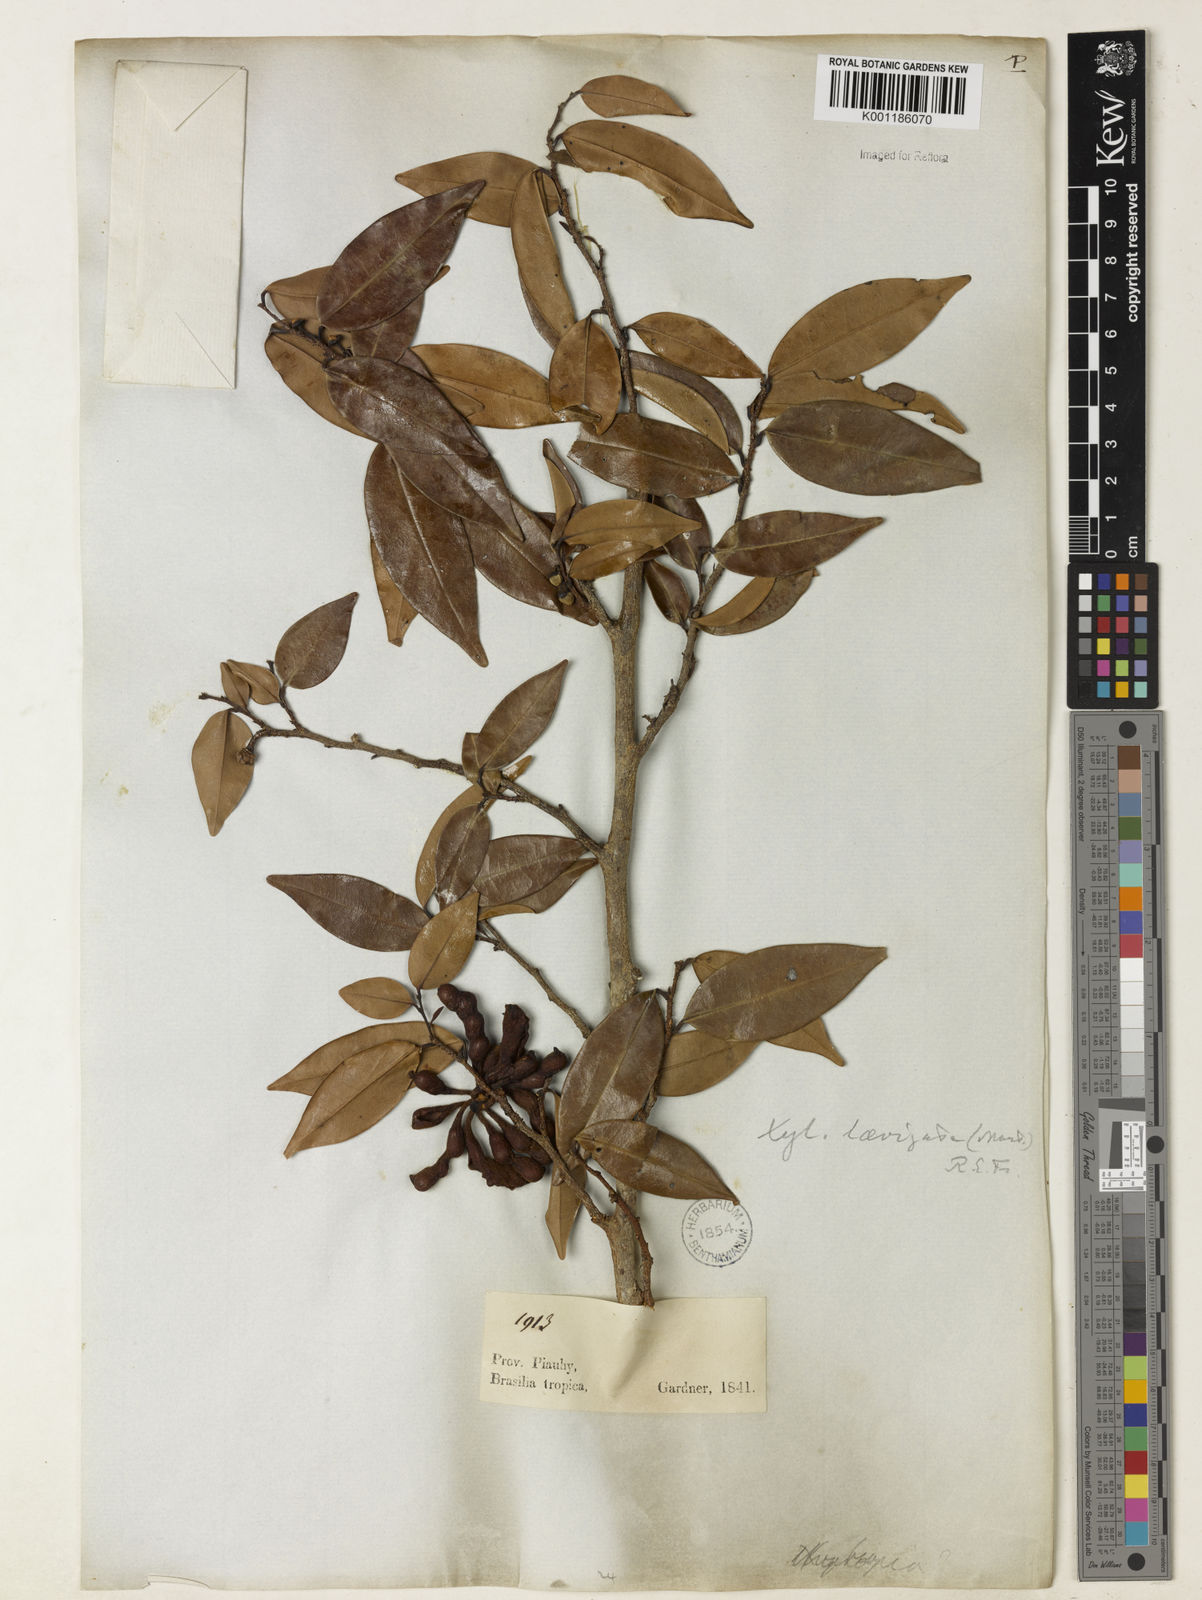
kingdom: Plantae
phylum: Tracheophyta
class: Magnoliopsida
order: Magnoliales
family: Annonaceae
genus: Xylopia
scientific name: Xylopia laevigata
